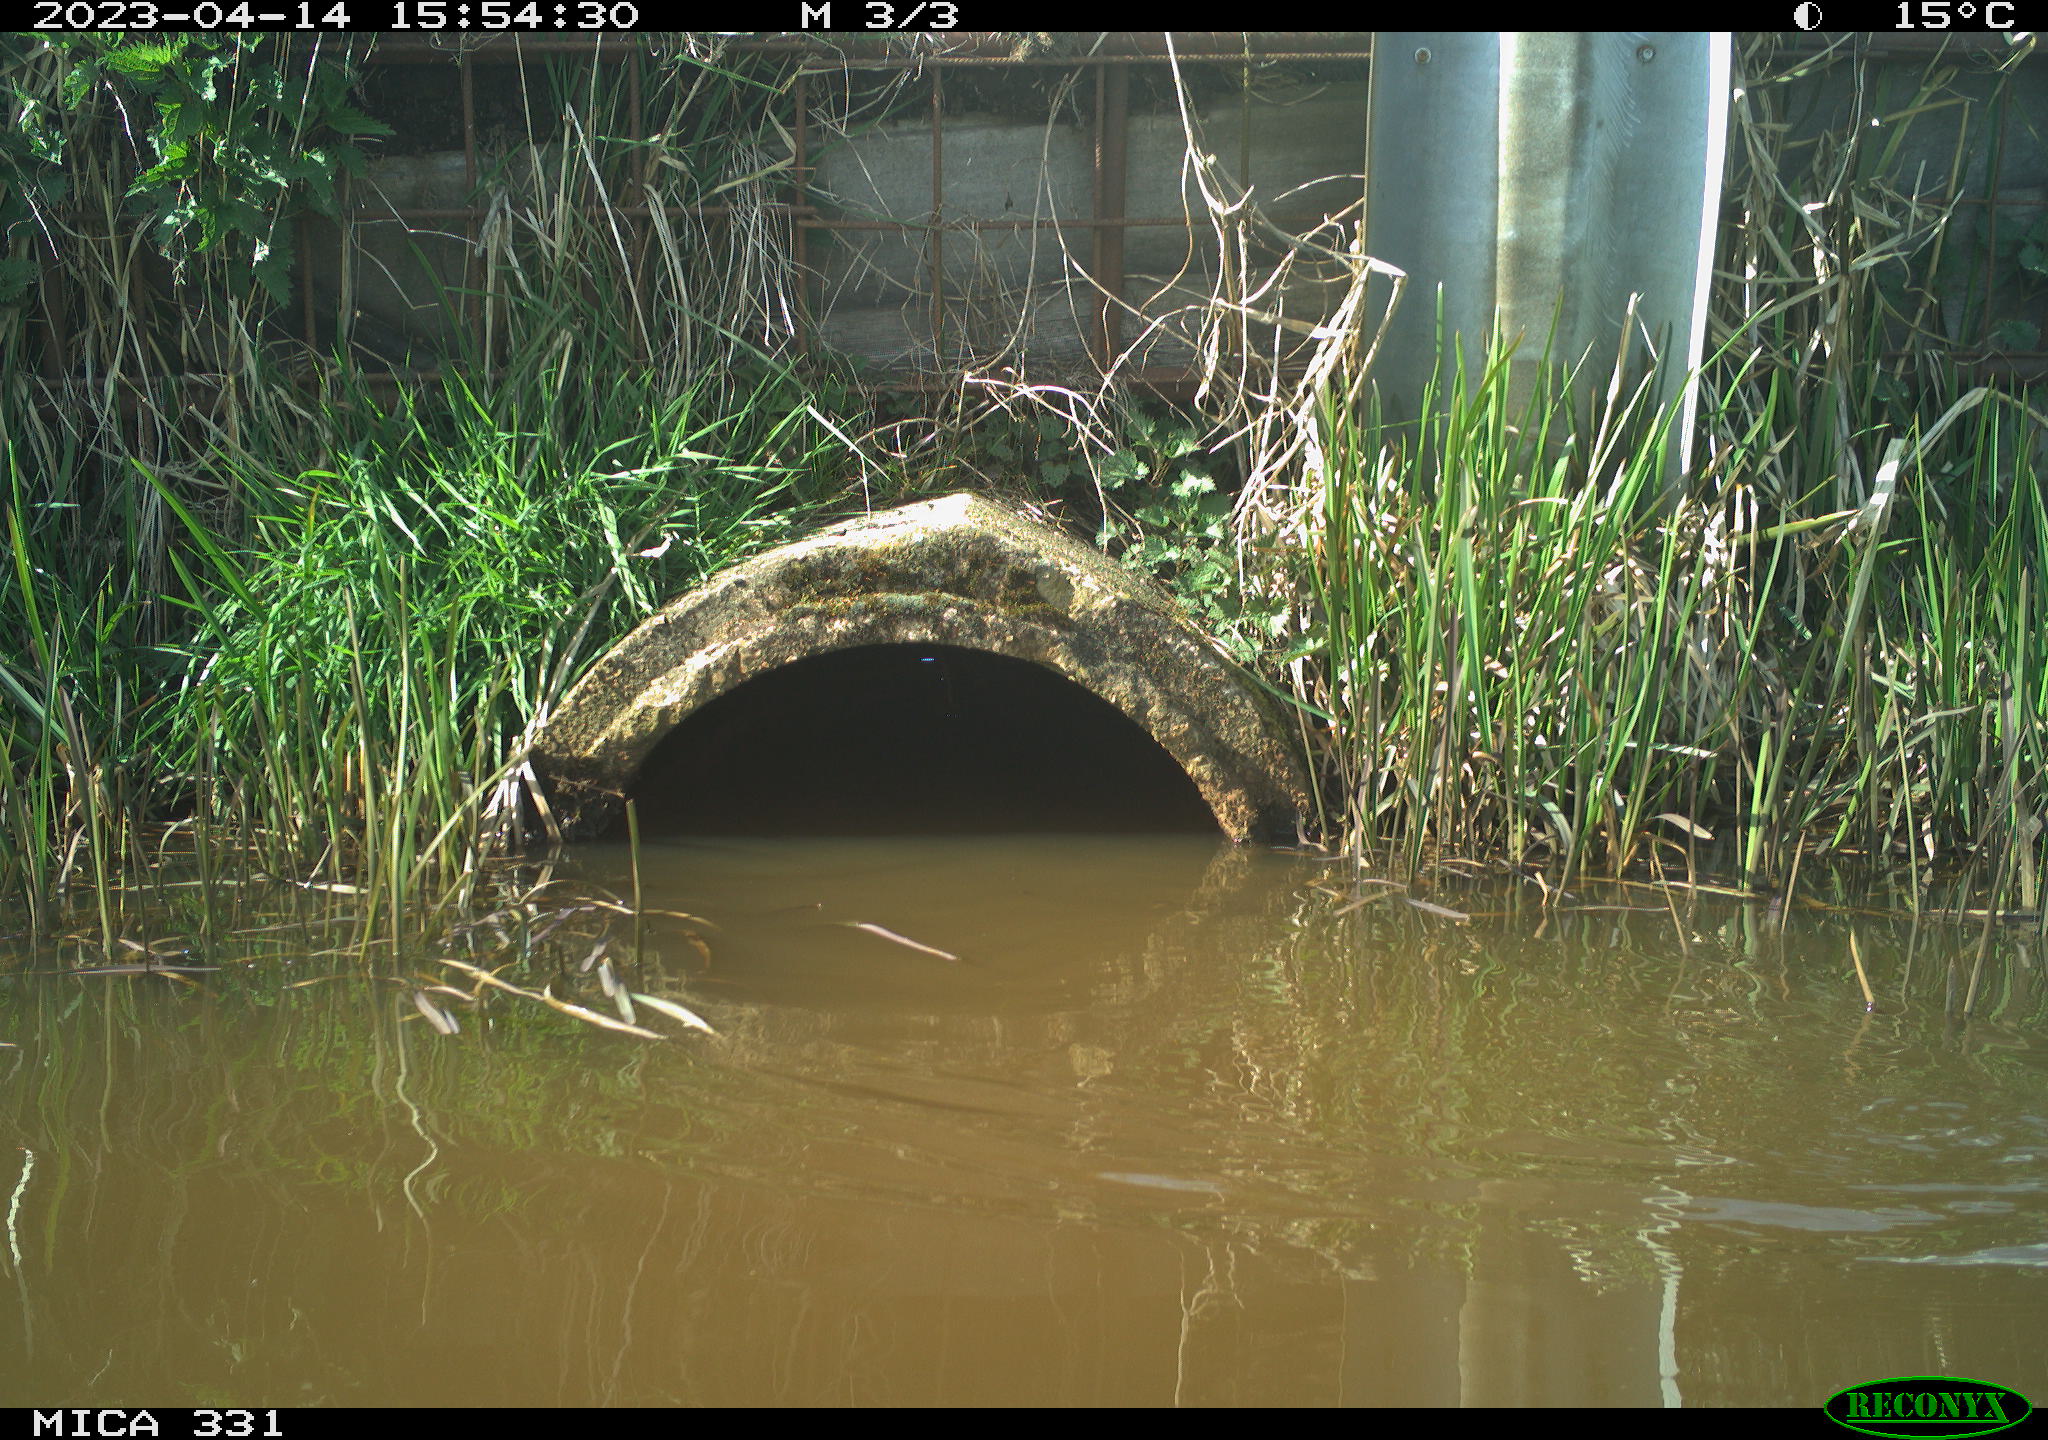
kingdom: Animalia
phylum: Chordata
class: Aves
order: Gruiformes
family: Rallidae
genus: Fulica
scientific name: Fulica atra
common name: Eurasian coot
